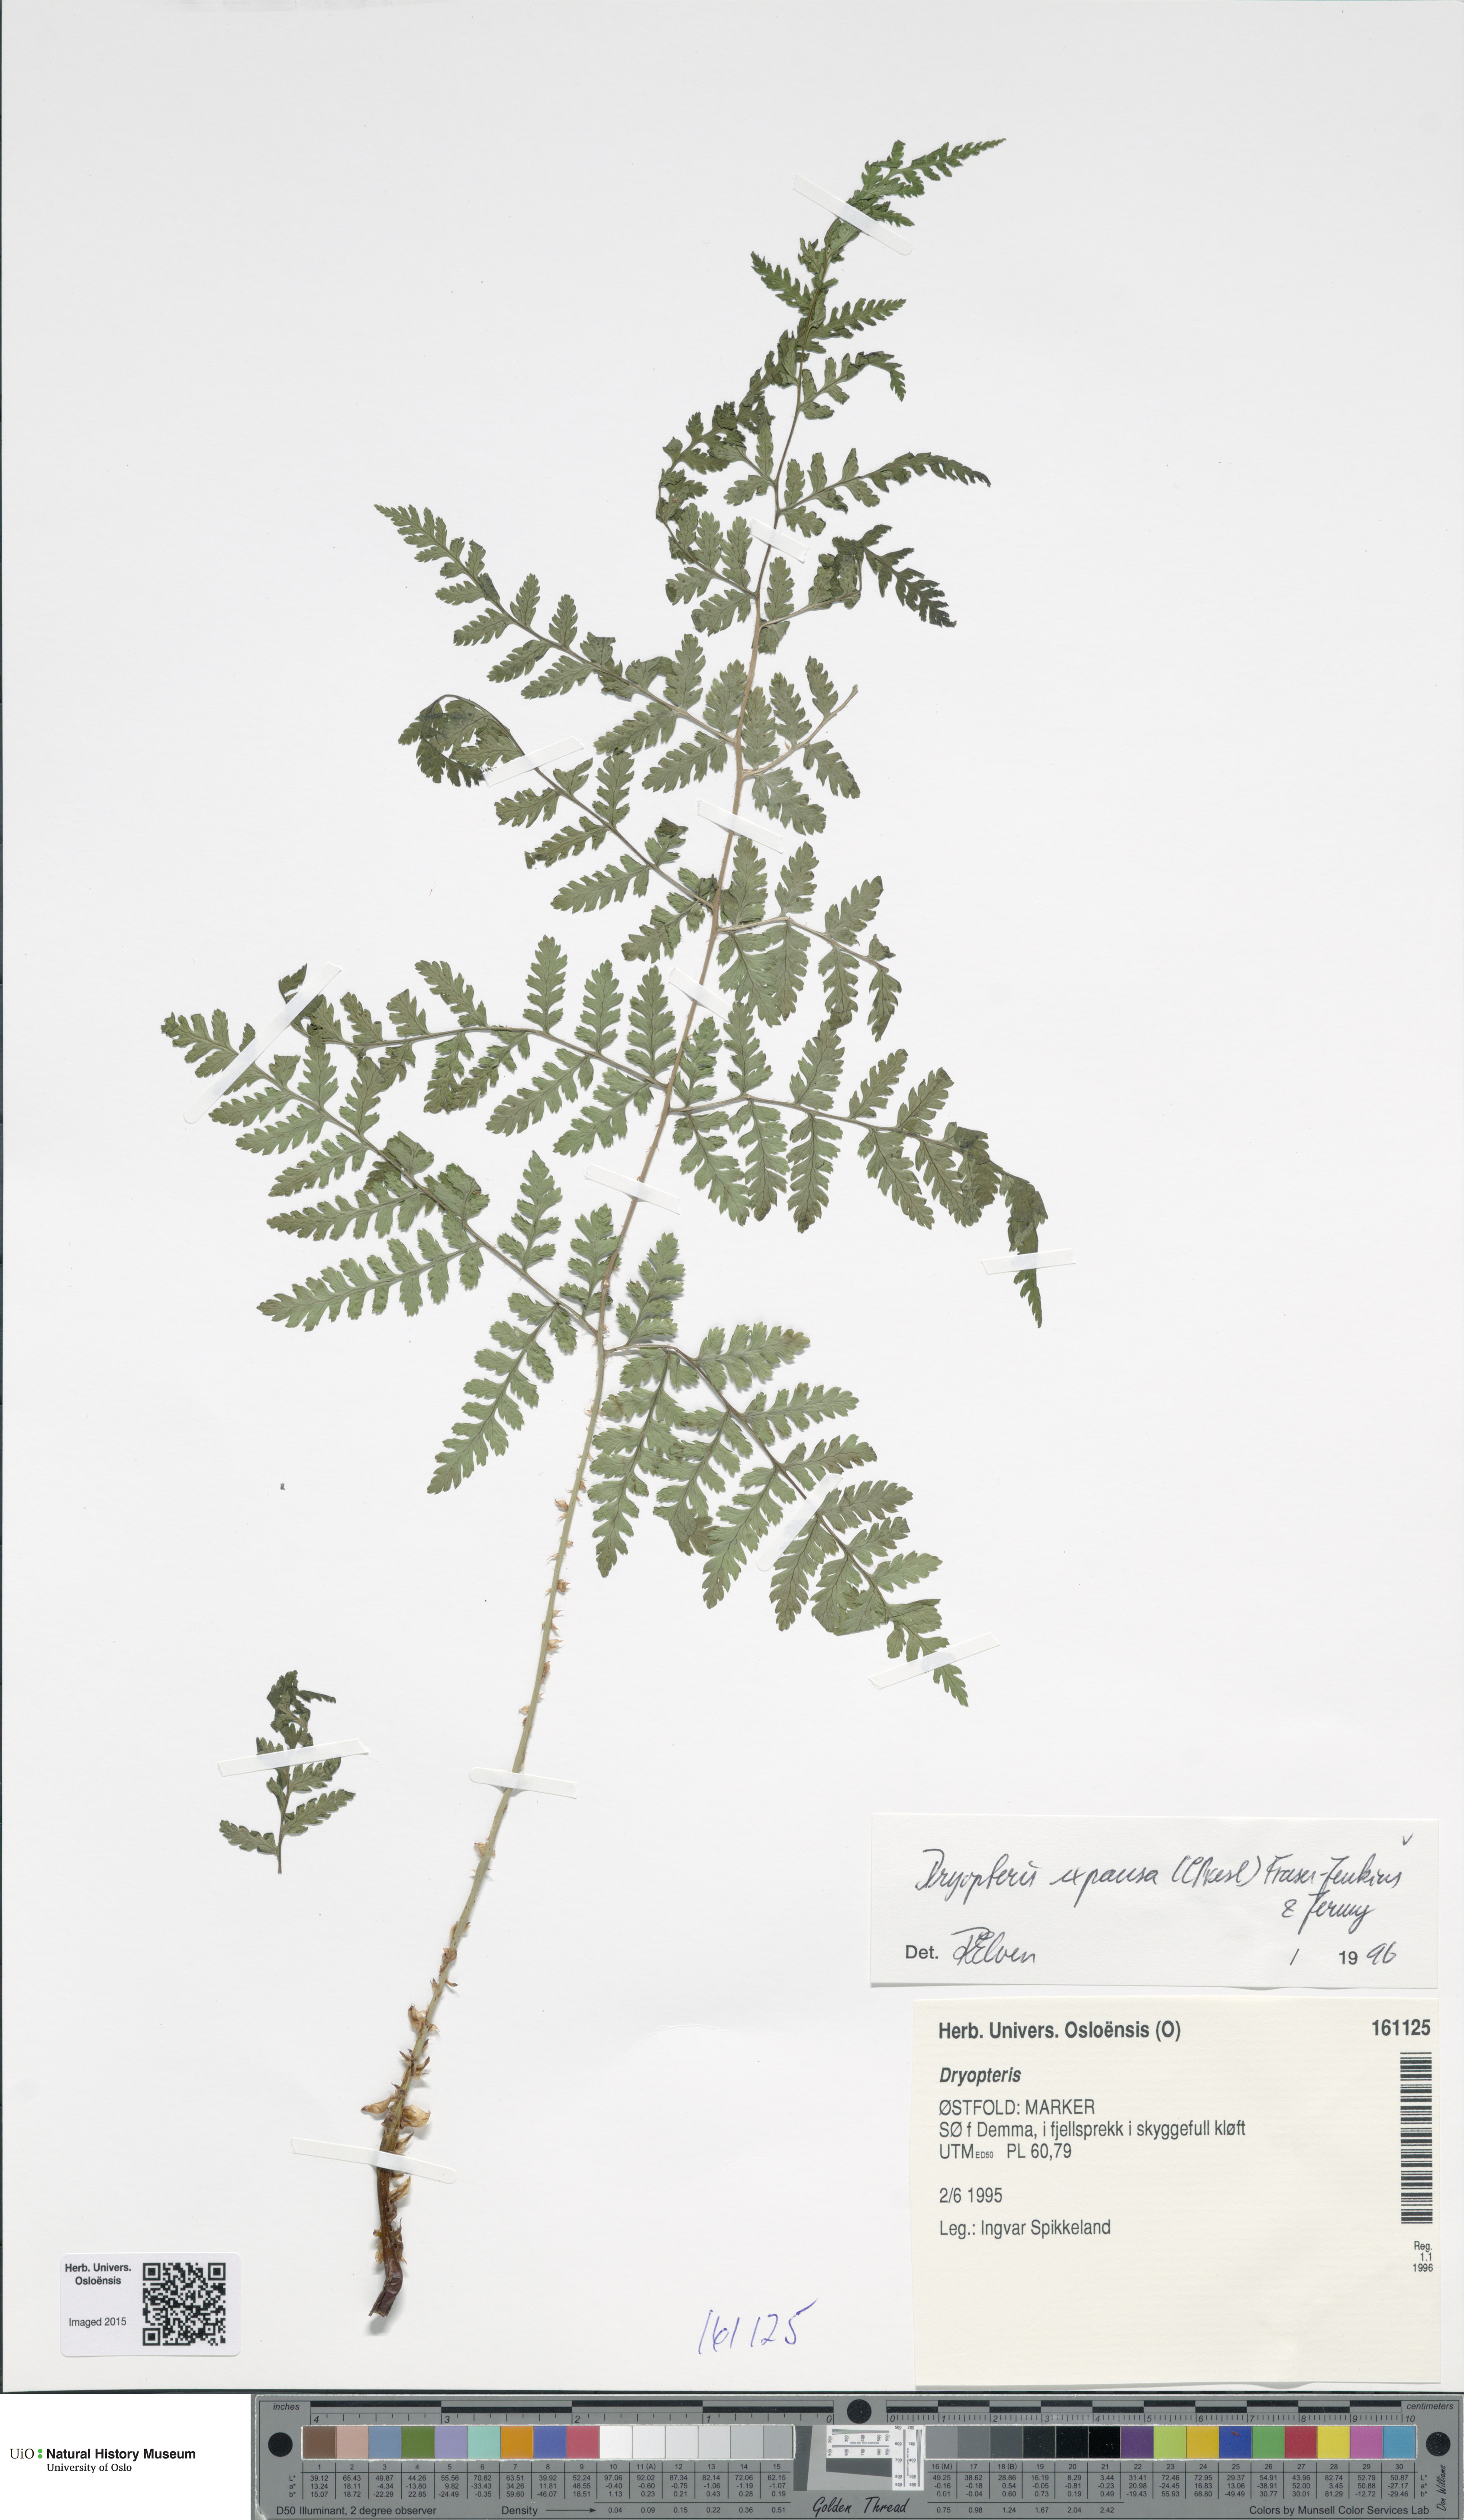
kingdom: Plantae
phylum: Tracheophyta
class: Polypodiopsida
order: Polypodiales
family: Dryopteridaceae
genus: Dryopteris
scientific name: Dryopteris expansa
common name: Northern buckler fern
